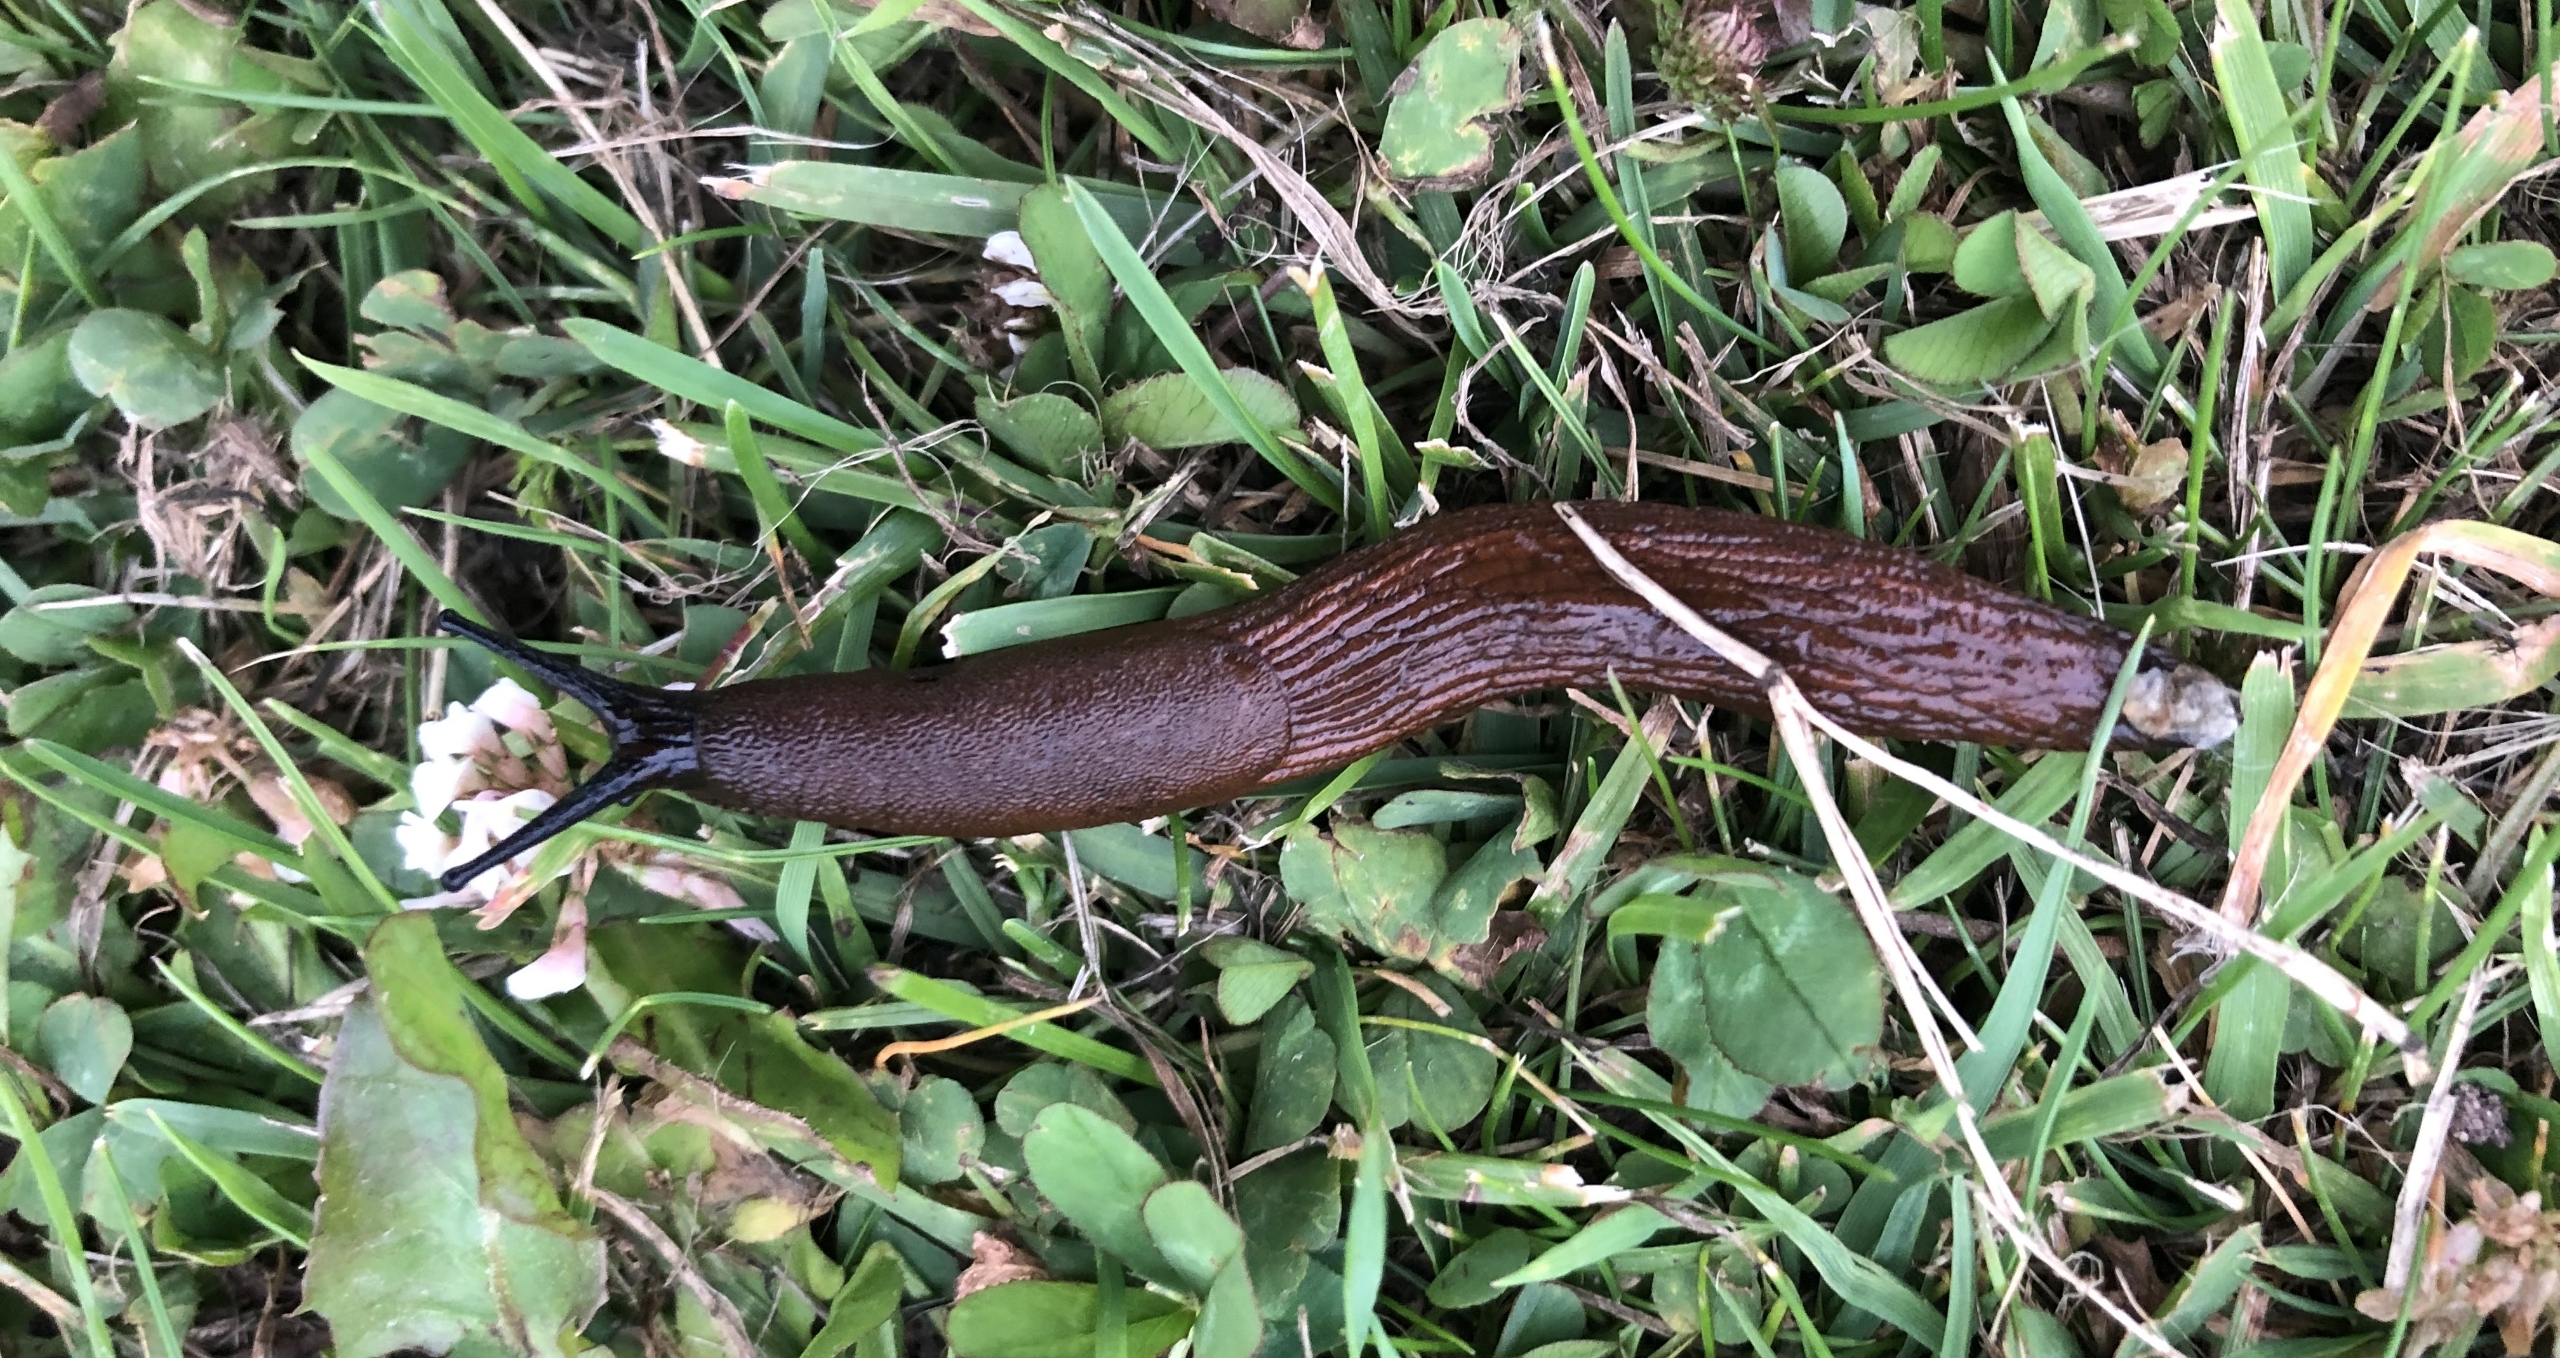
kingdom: Animalia
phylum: Mollusca
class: Gastropoda
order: Stylommatophora
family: Arionidae
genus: Arion
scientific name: Arion vulgaris
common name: Iberisk skovsnegl
